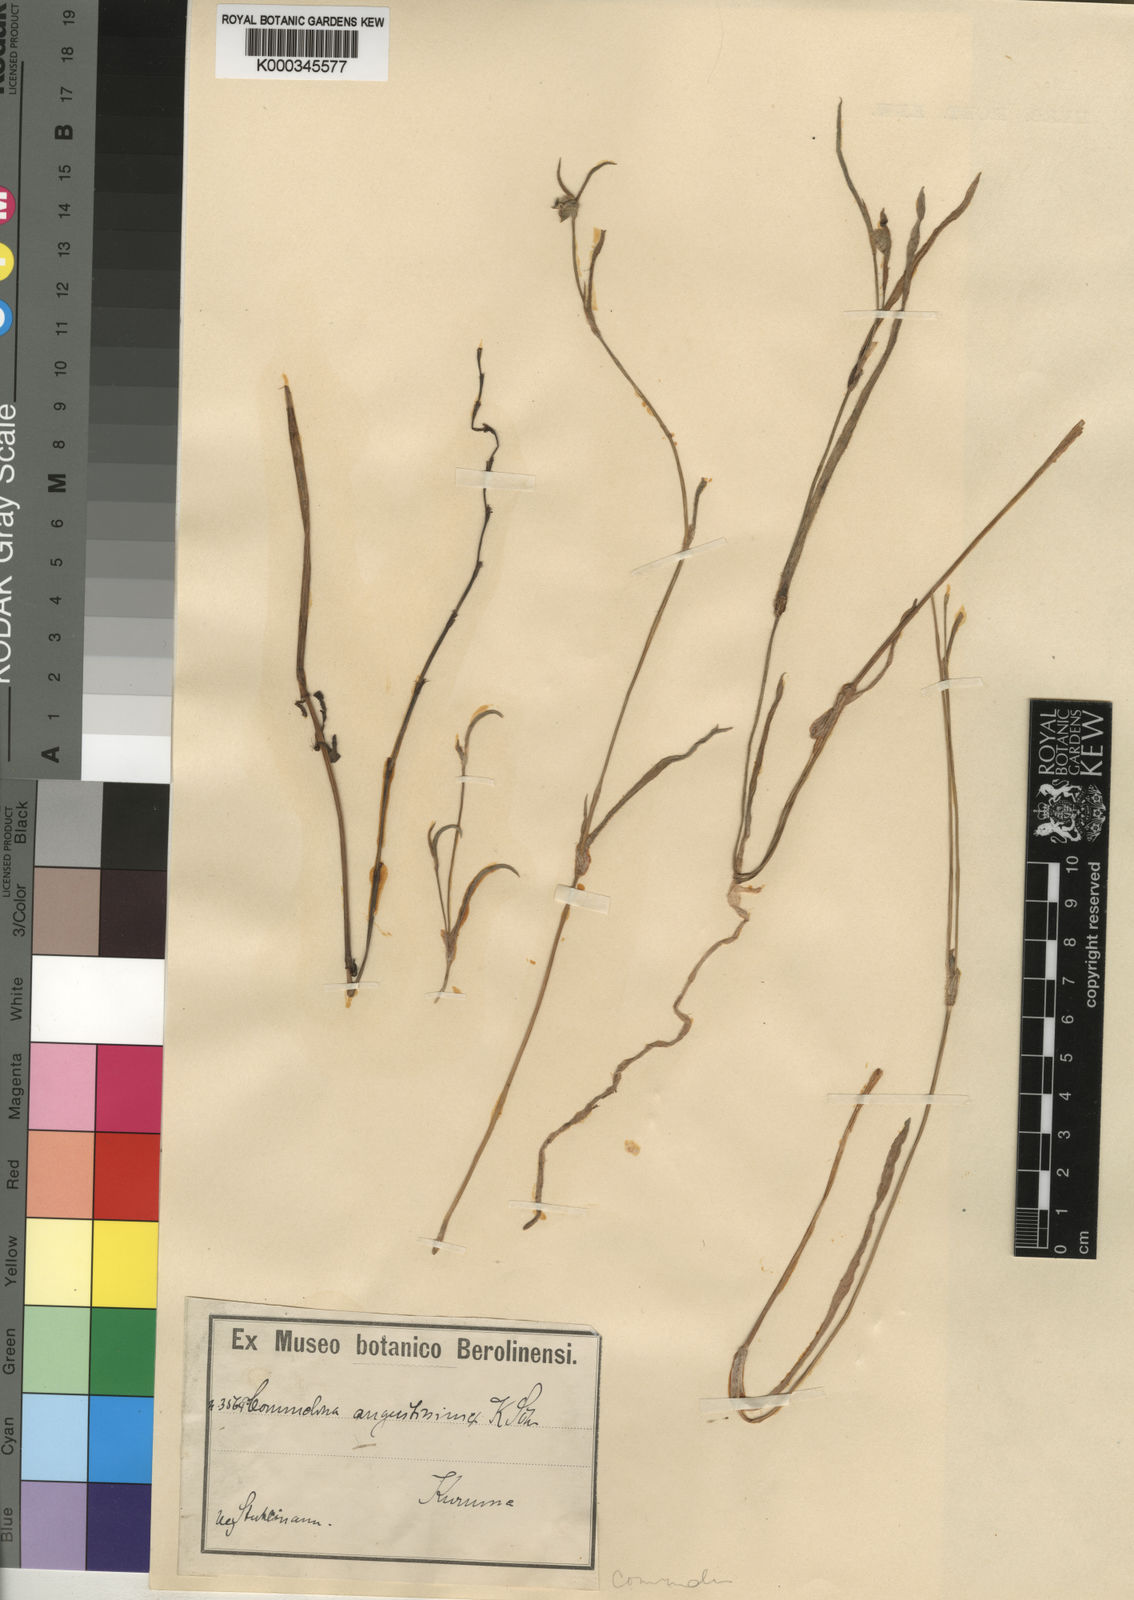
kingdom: Plantae
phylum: Tracheophyta
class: Liliopsida
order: Commelinales
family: Commelinaceae
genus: Commelina
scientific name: Commelina subulata
